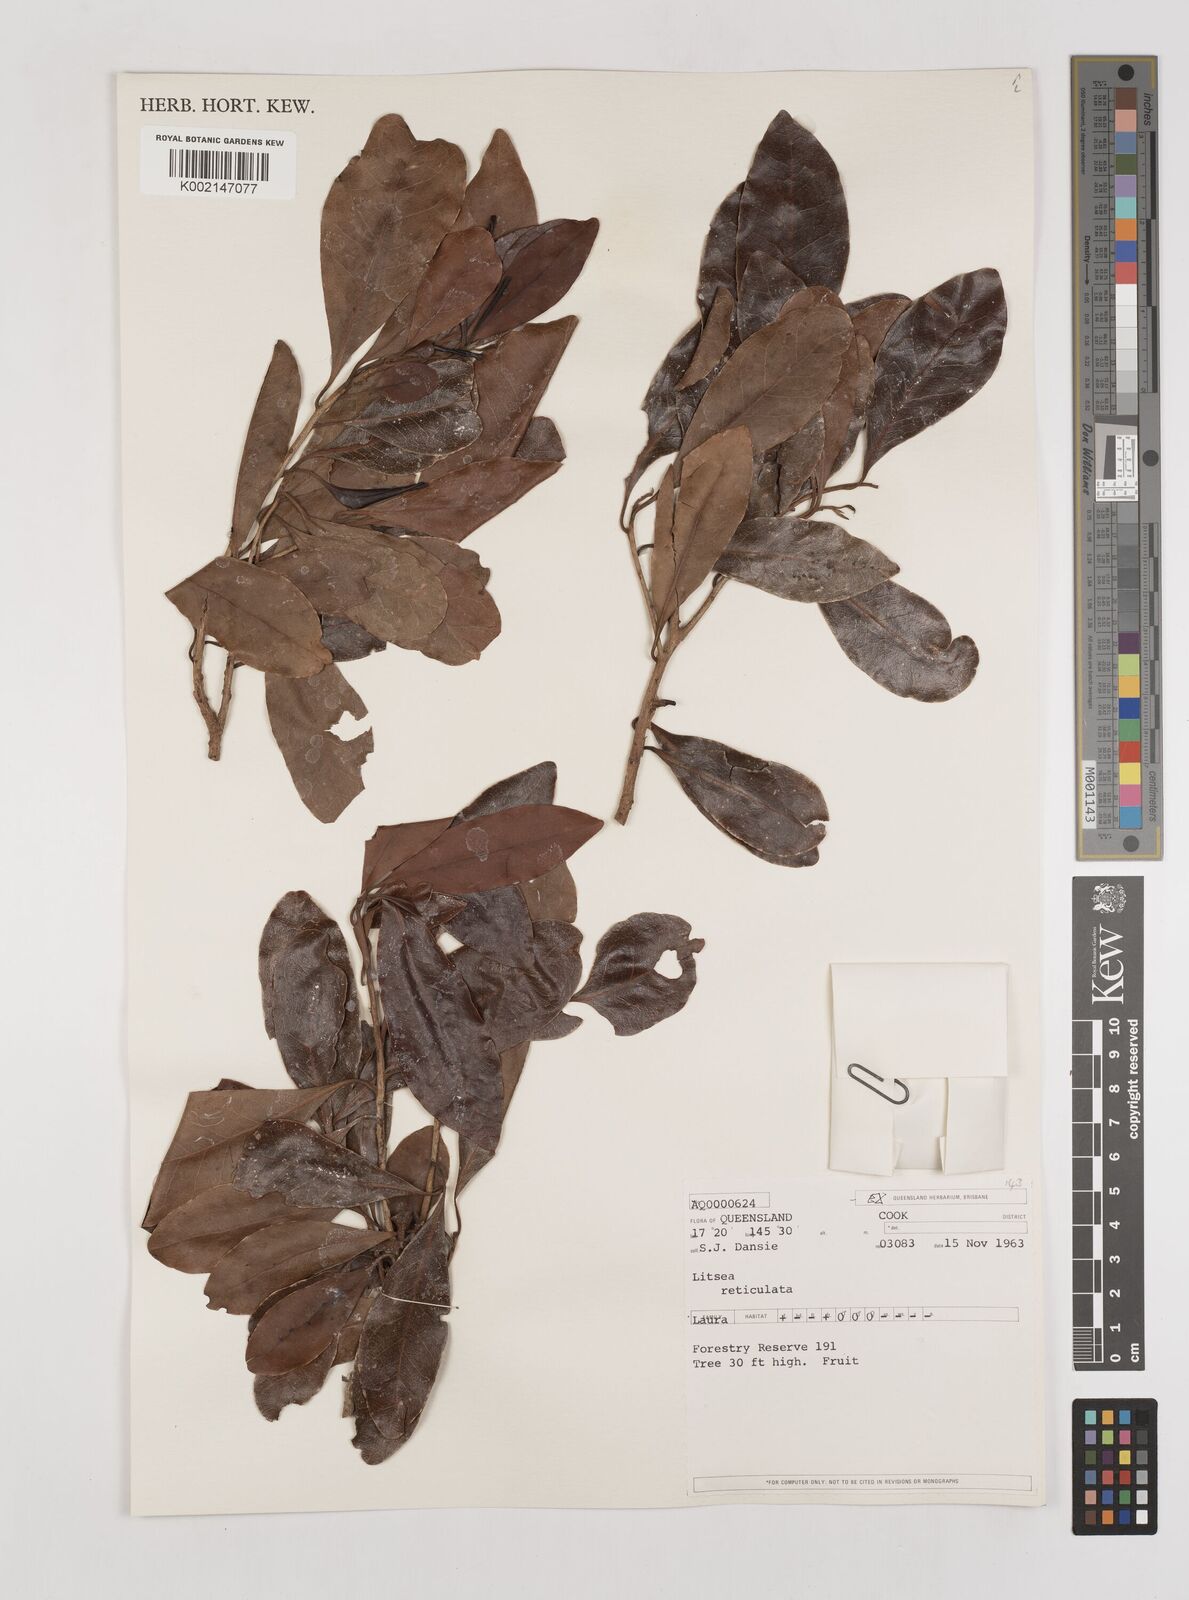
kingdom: Plantae
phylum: Tracheophyta
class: Magnoliopsida
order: Laurales
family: Lauraceae
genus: Litsea
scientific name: Litsea reticulata
